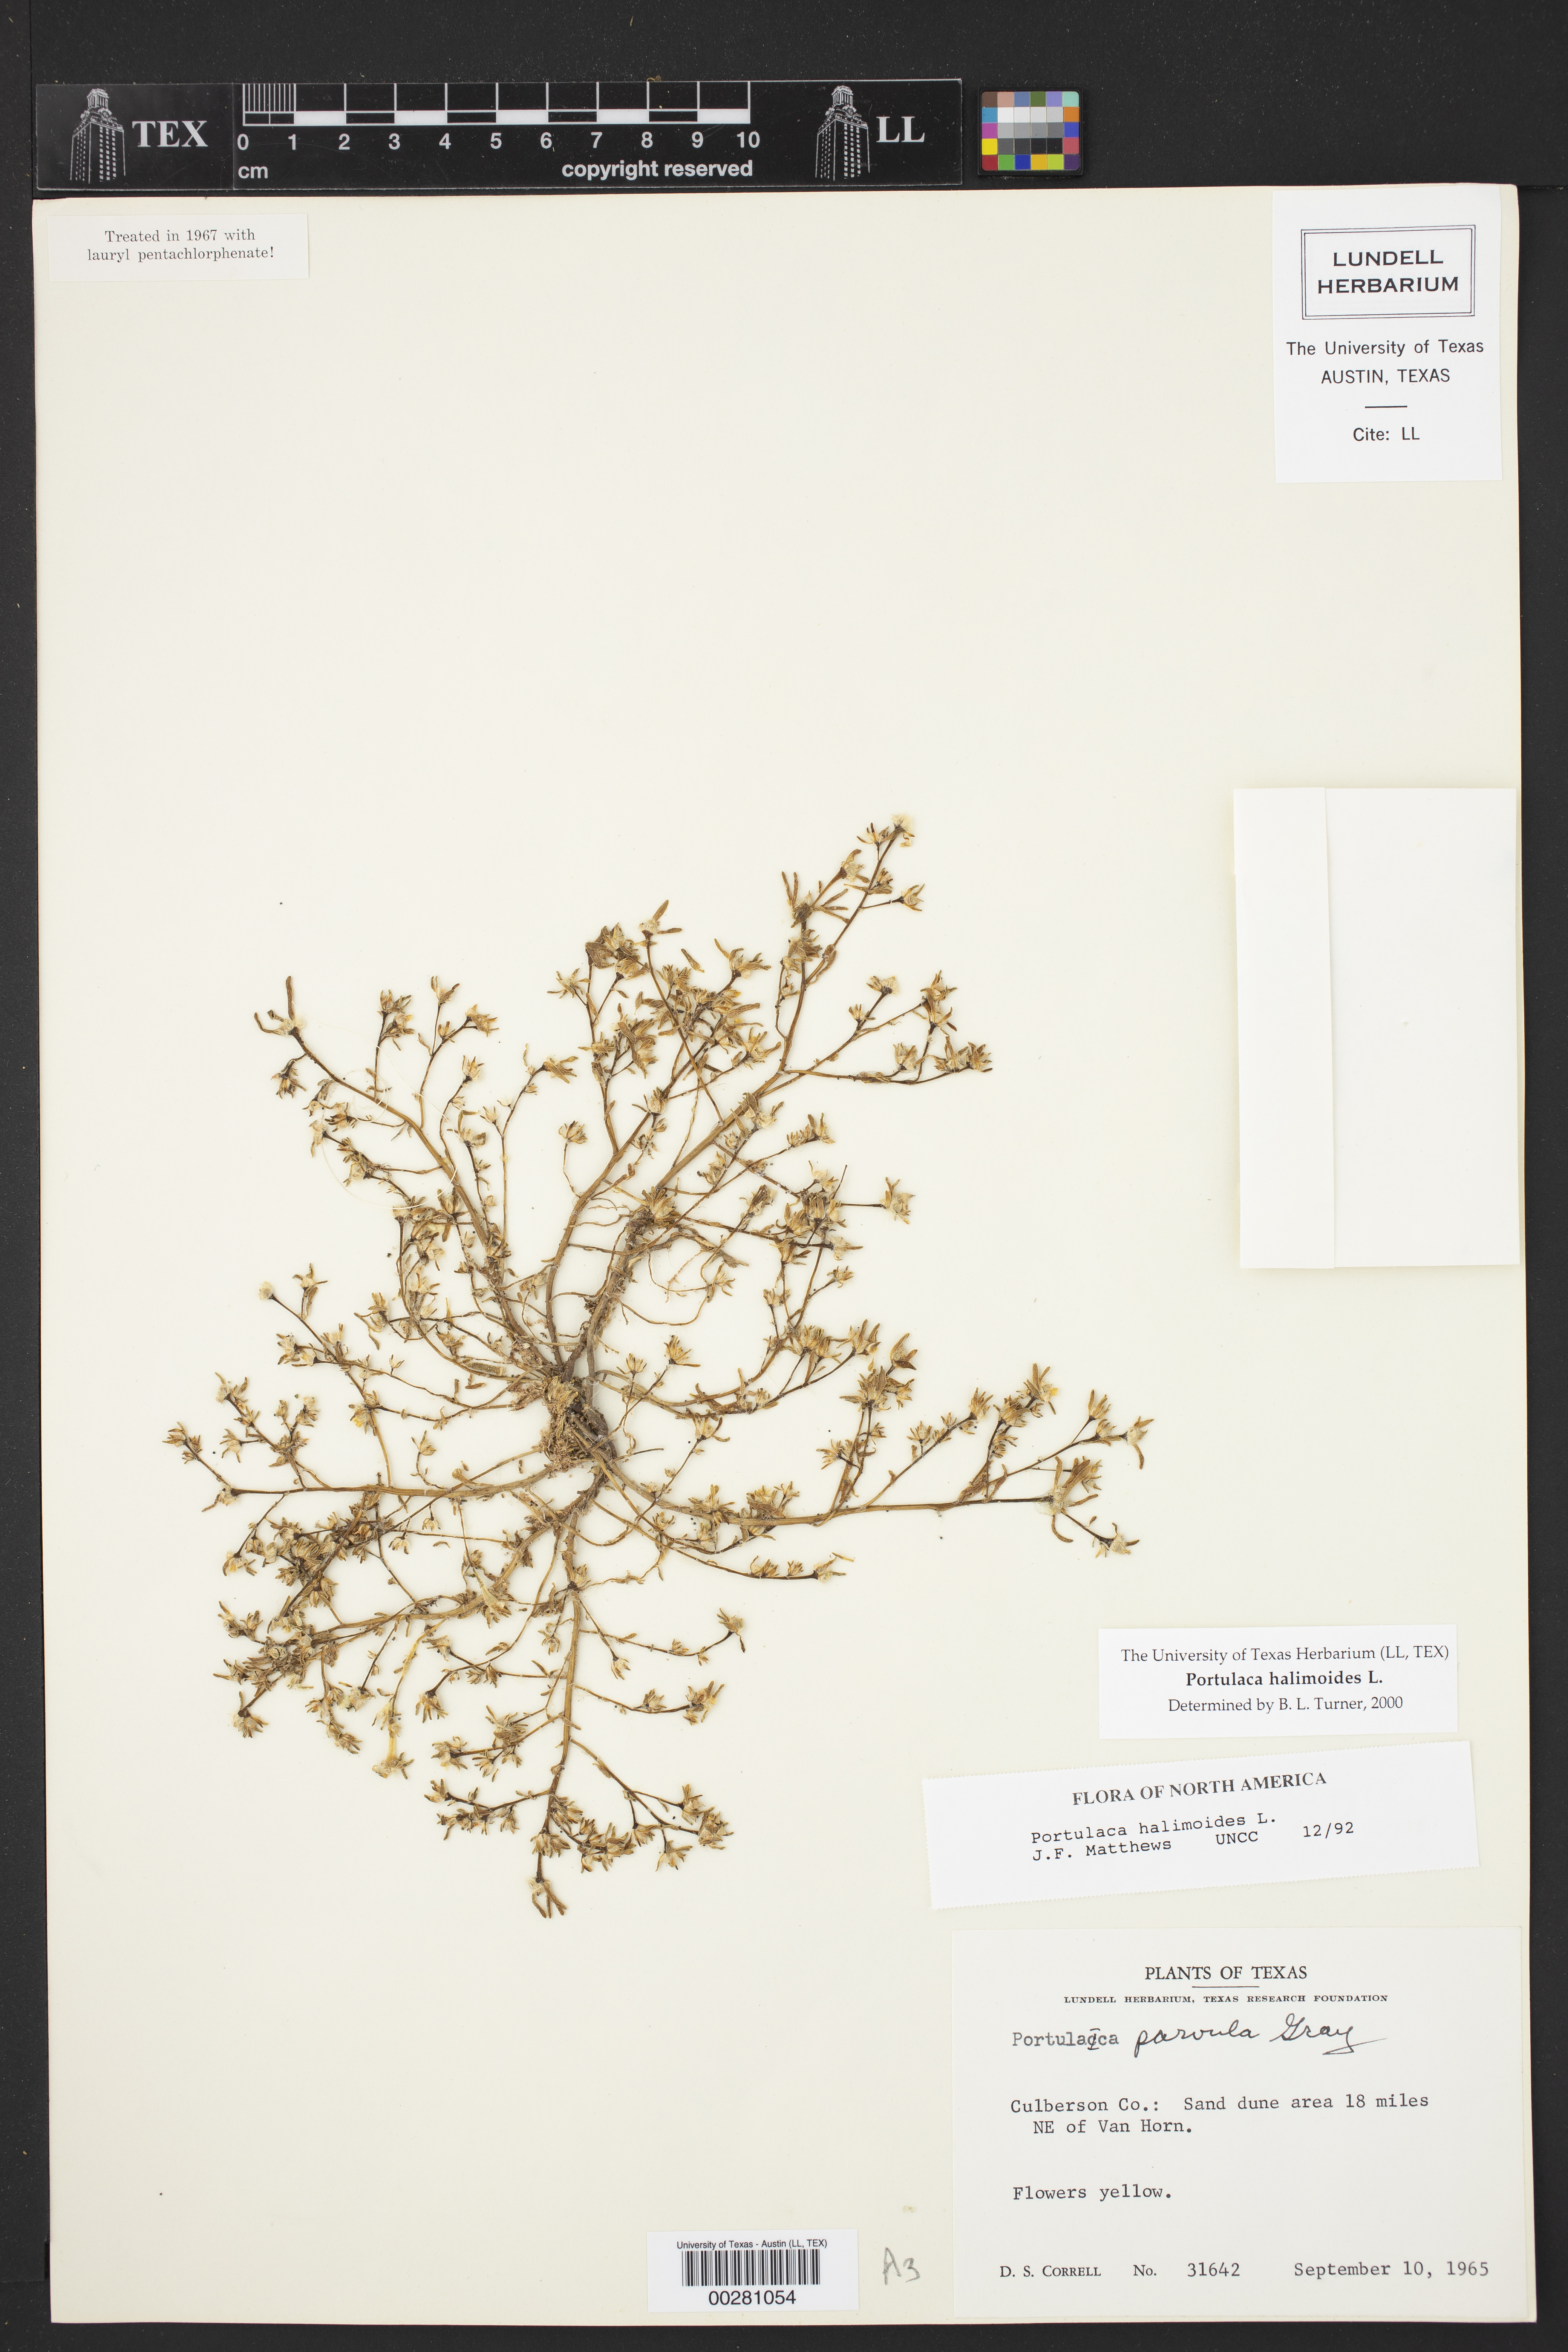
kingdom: Plantae
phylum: Tracheophyta
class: Magnoliopsida
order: Caryophyllales
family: Portulacaceae
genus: Portulaca
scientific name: Portulaca halimoides
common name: Silk cotton purslane
